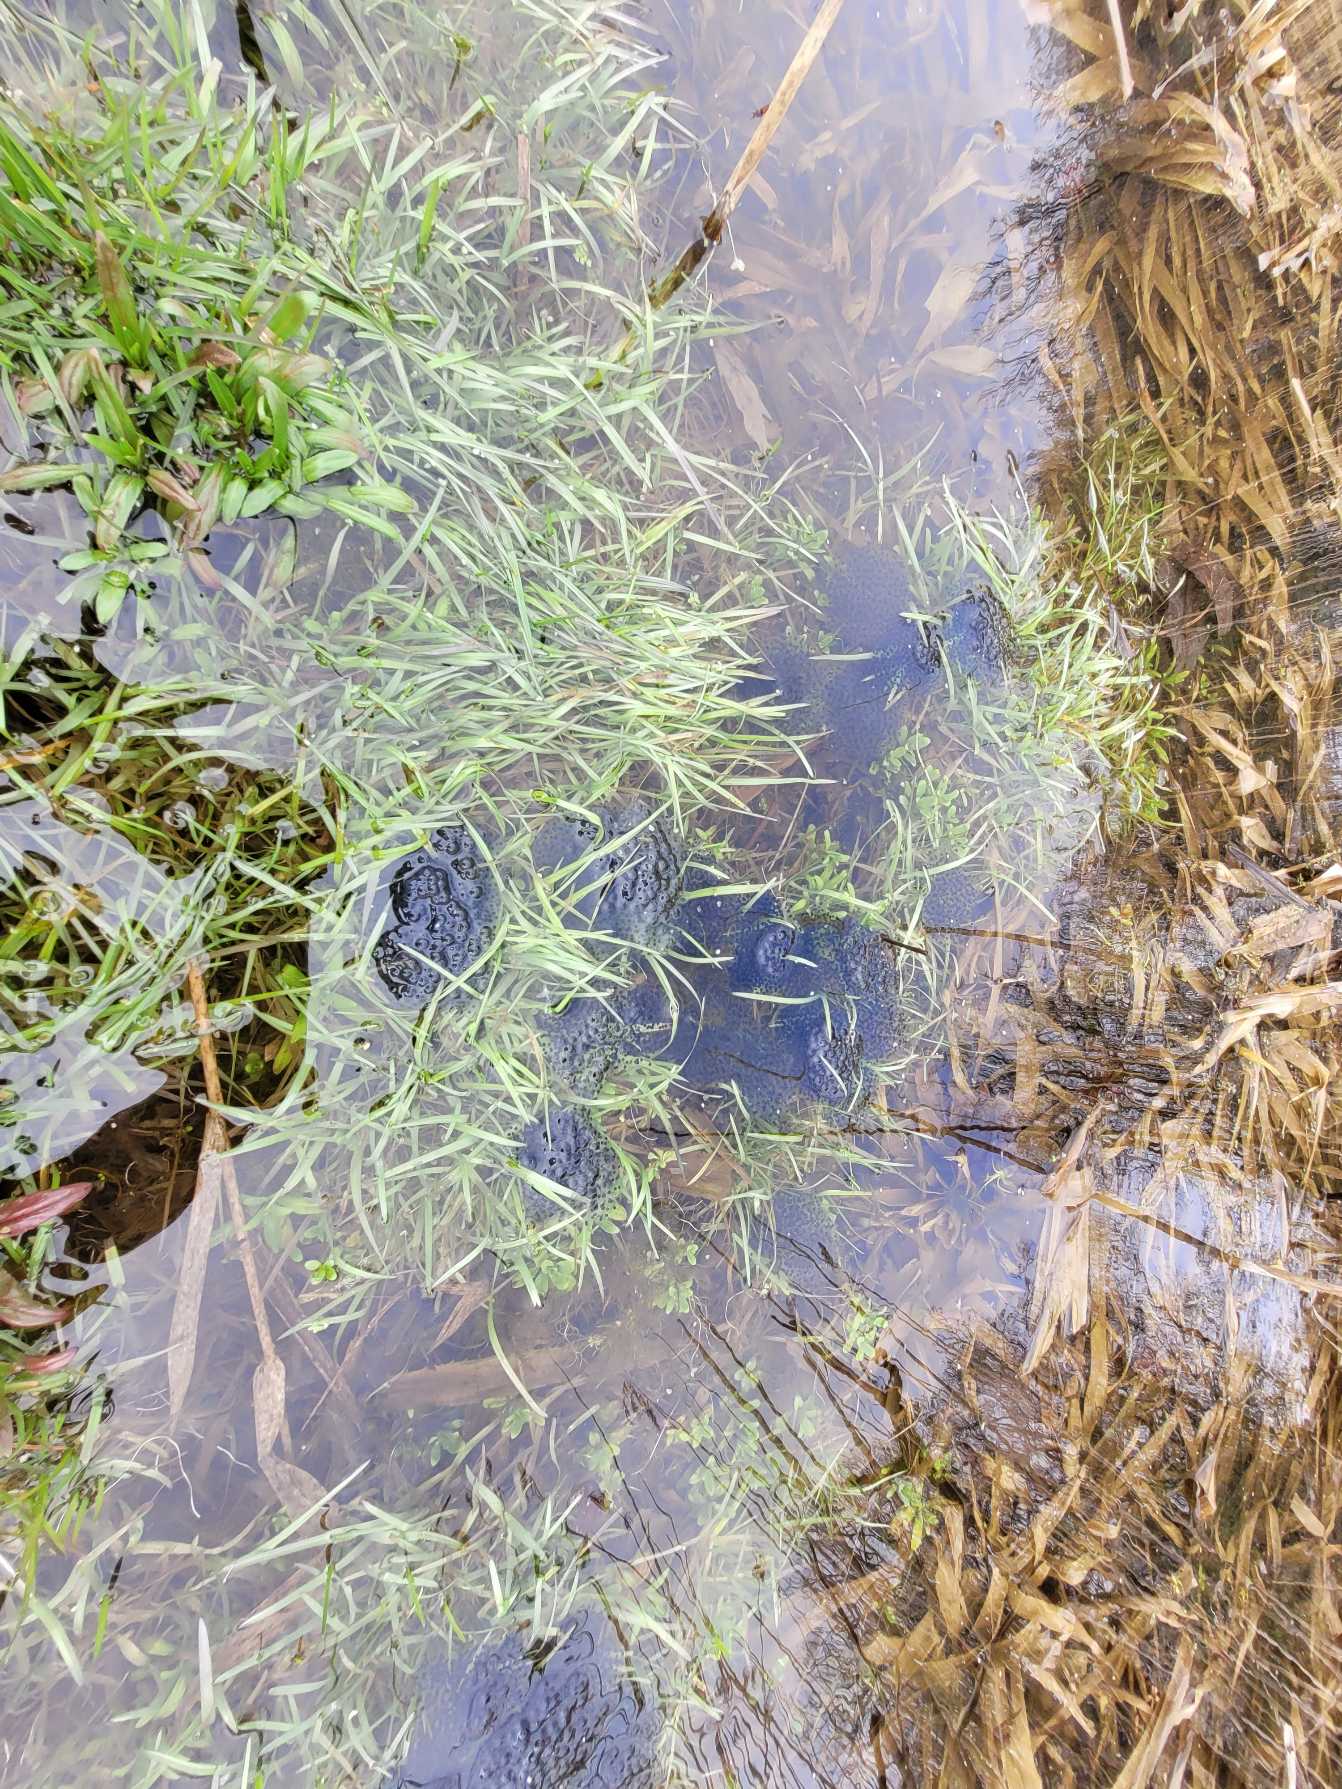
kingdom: Animalia
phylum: Chordata
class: Amphibia
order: Anura
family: Ranidae
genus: Rana
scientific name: Rana arvalis
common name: Spidssnudet frø
